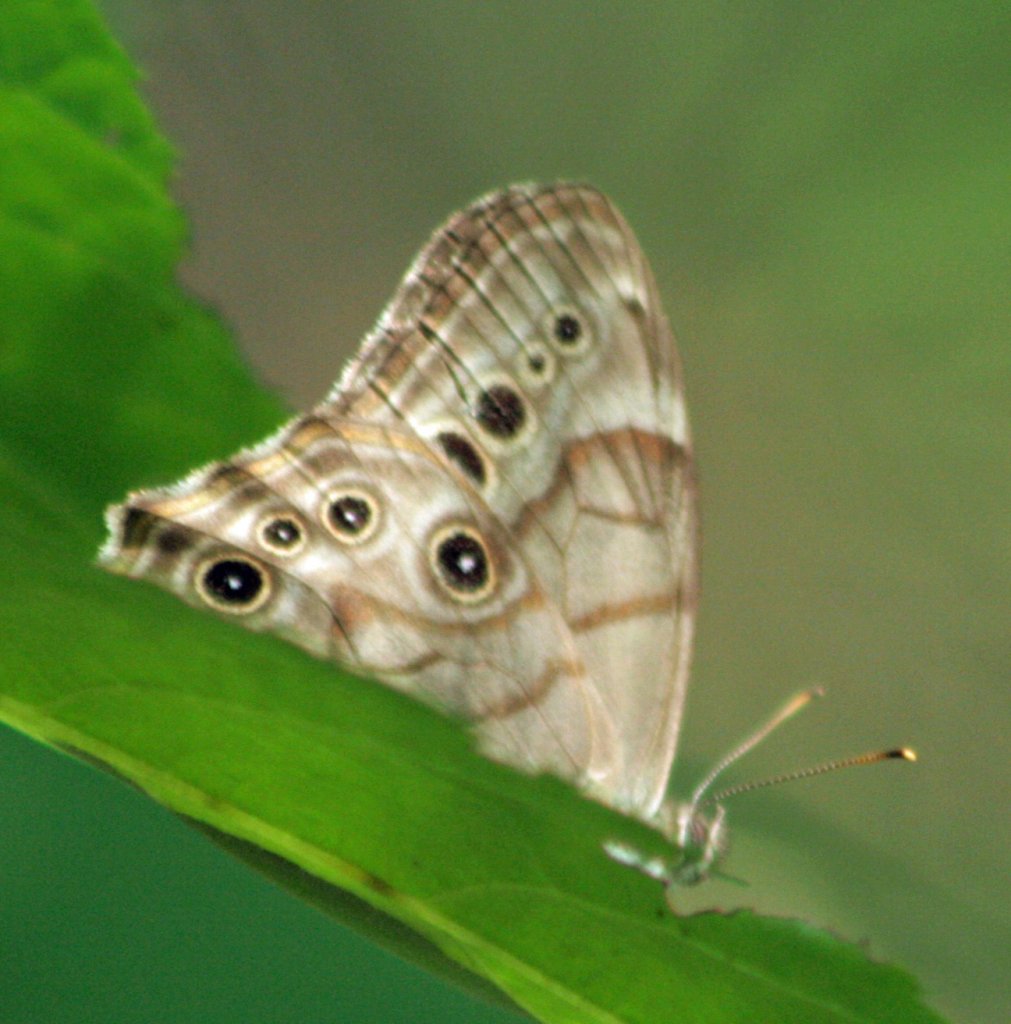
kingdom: Animalia
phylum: Arthropoda
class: Insecta
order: Lepidoptera
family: Nymphalidae
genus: Lethe
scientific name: Lethe anthedon
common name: Northern Pearly-Eye
